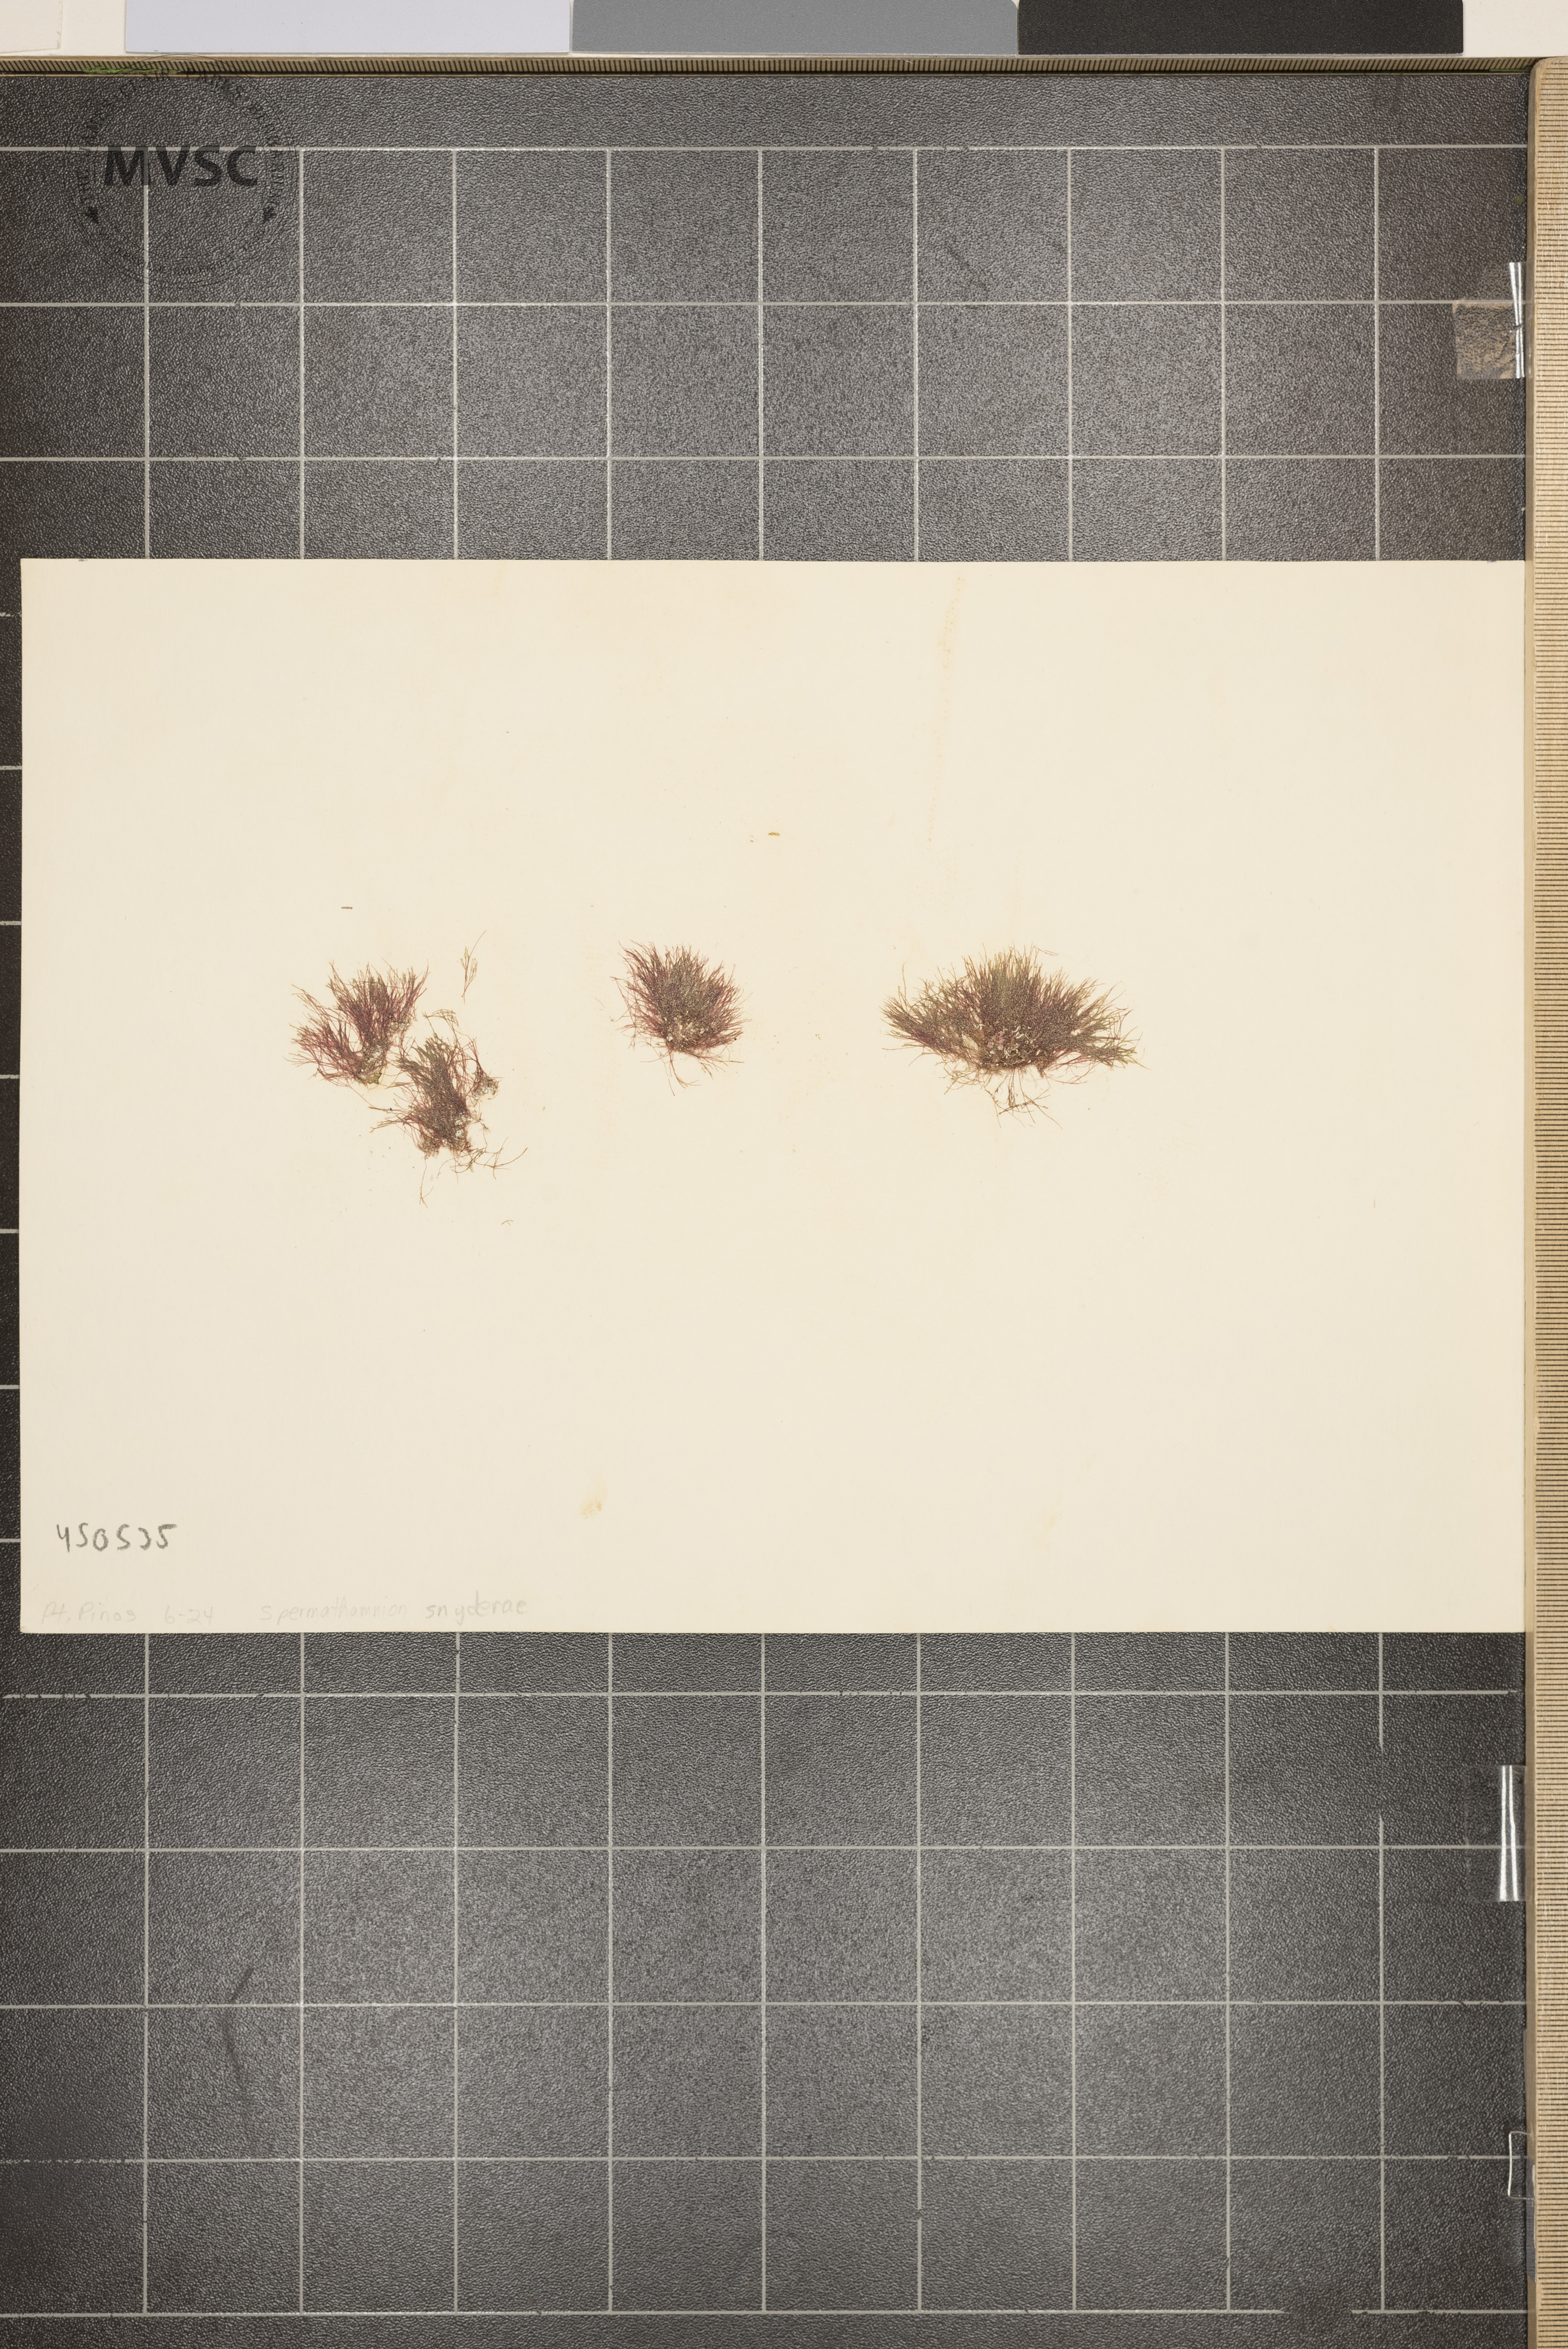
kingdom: Plantae
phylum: Rhodophyta
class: Florideophyceae
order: Ceramiales
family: Wrangeliaceae
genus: Tiffaniella
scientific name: Tiffaniella snyderiae
